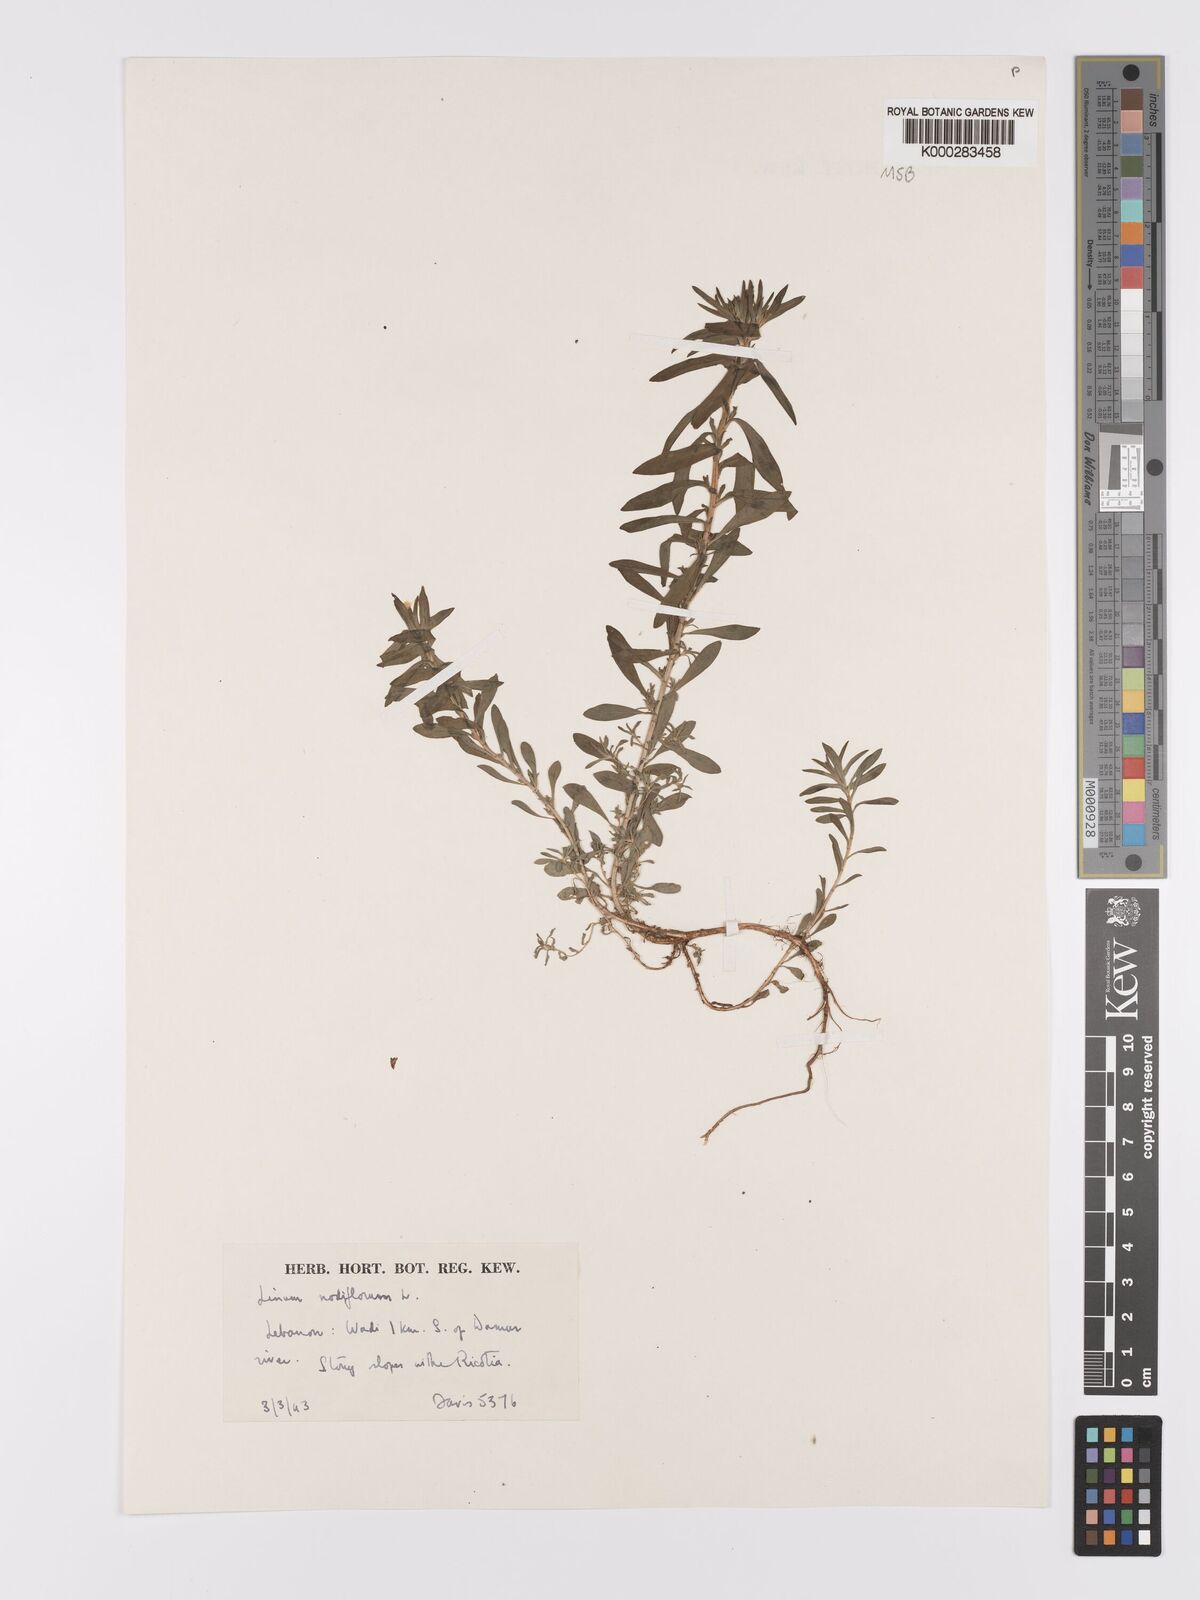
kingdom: Plantae
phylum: Tracheophyta
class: Magnoliopsida
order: Malpighiales
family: Linaceae
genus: Linum
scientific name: Linum nodiflorum
